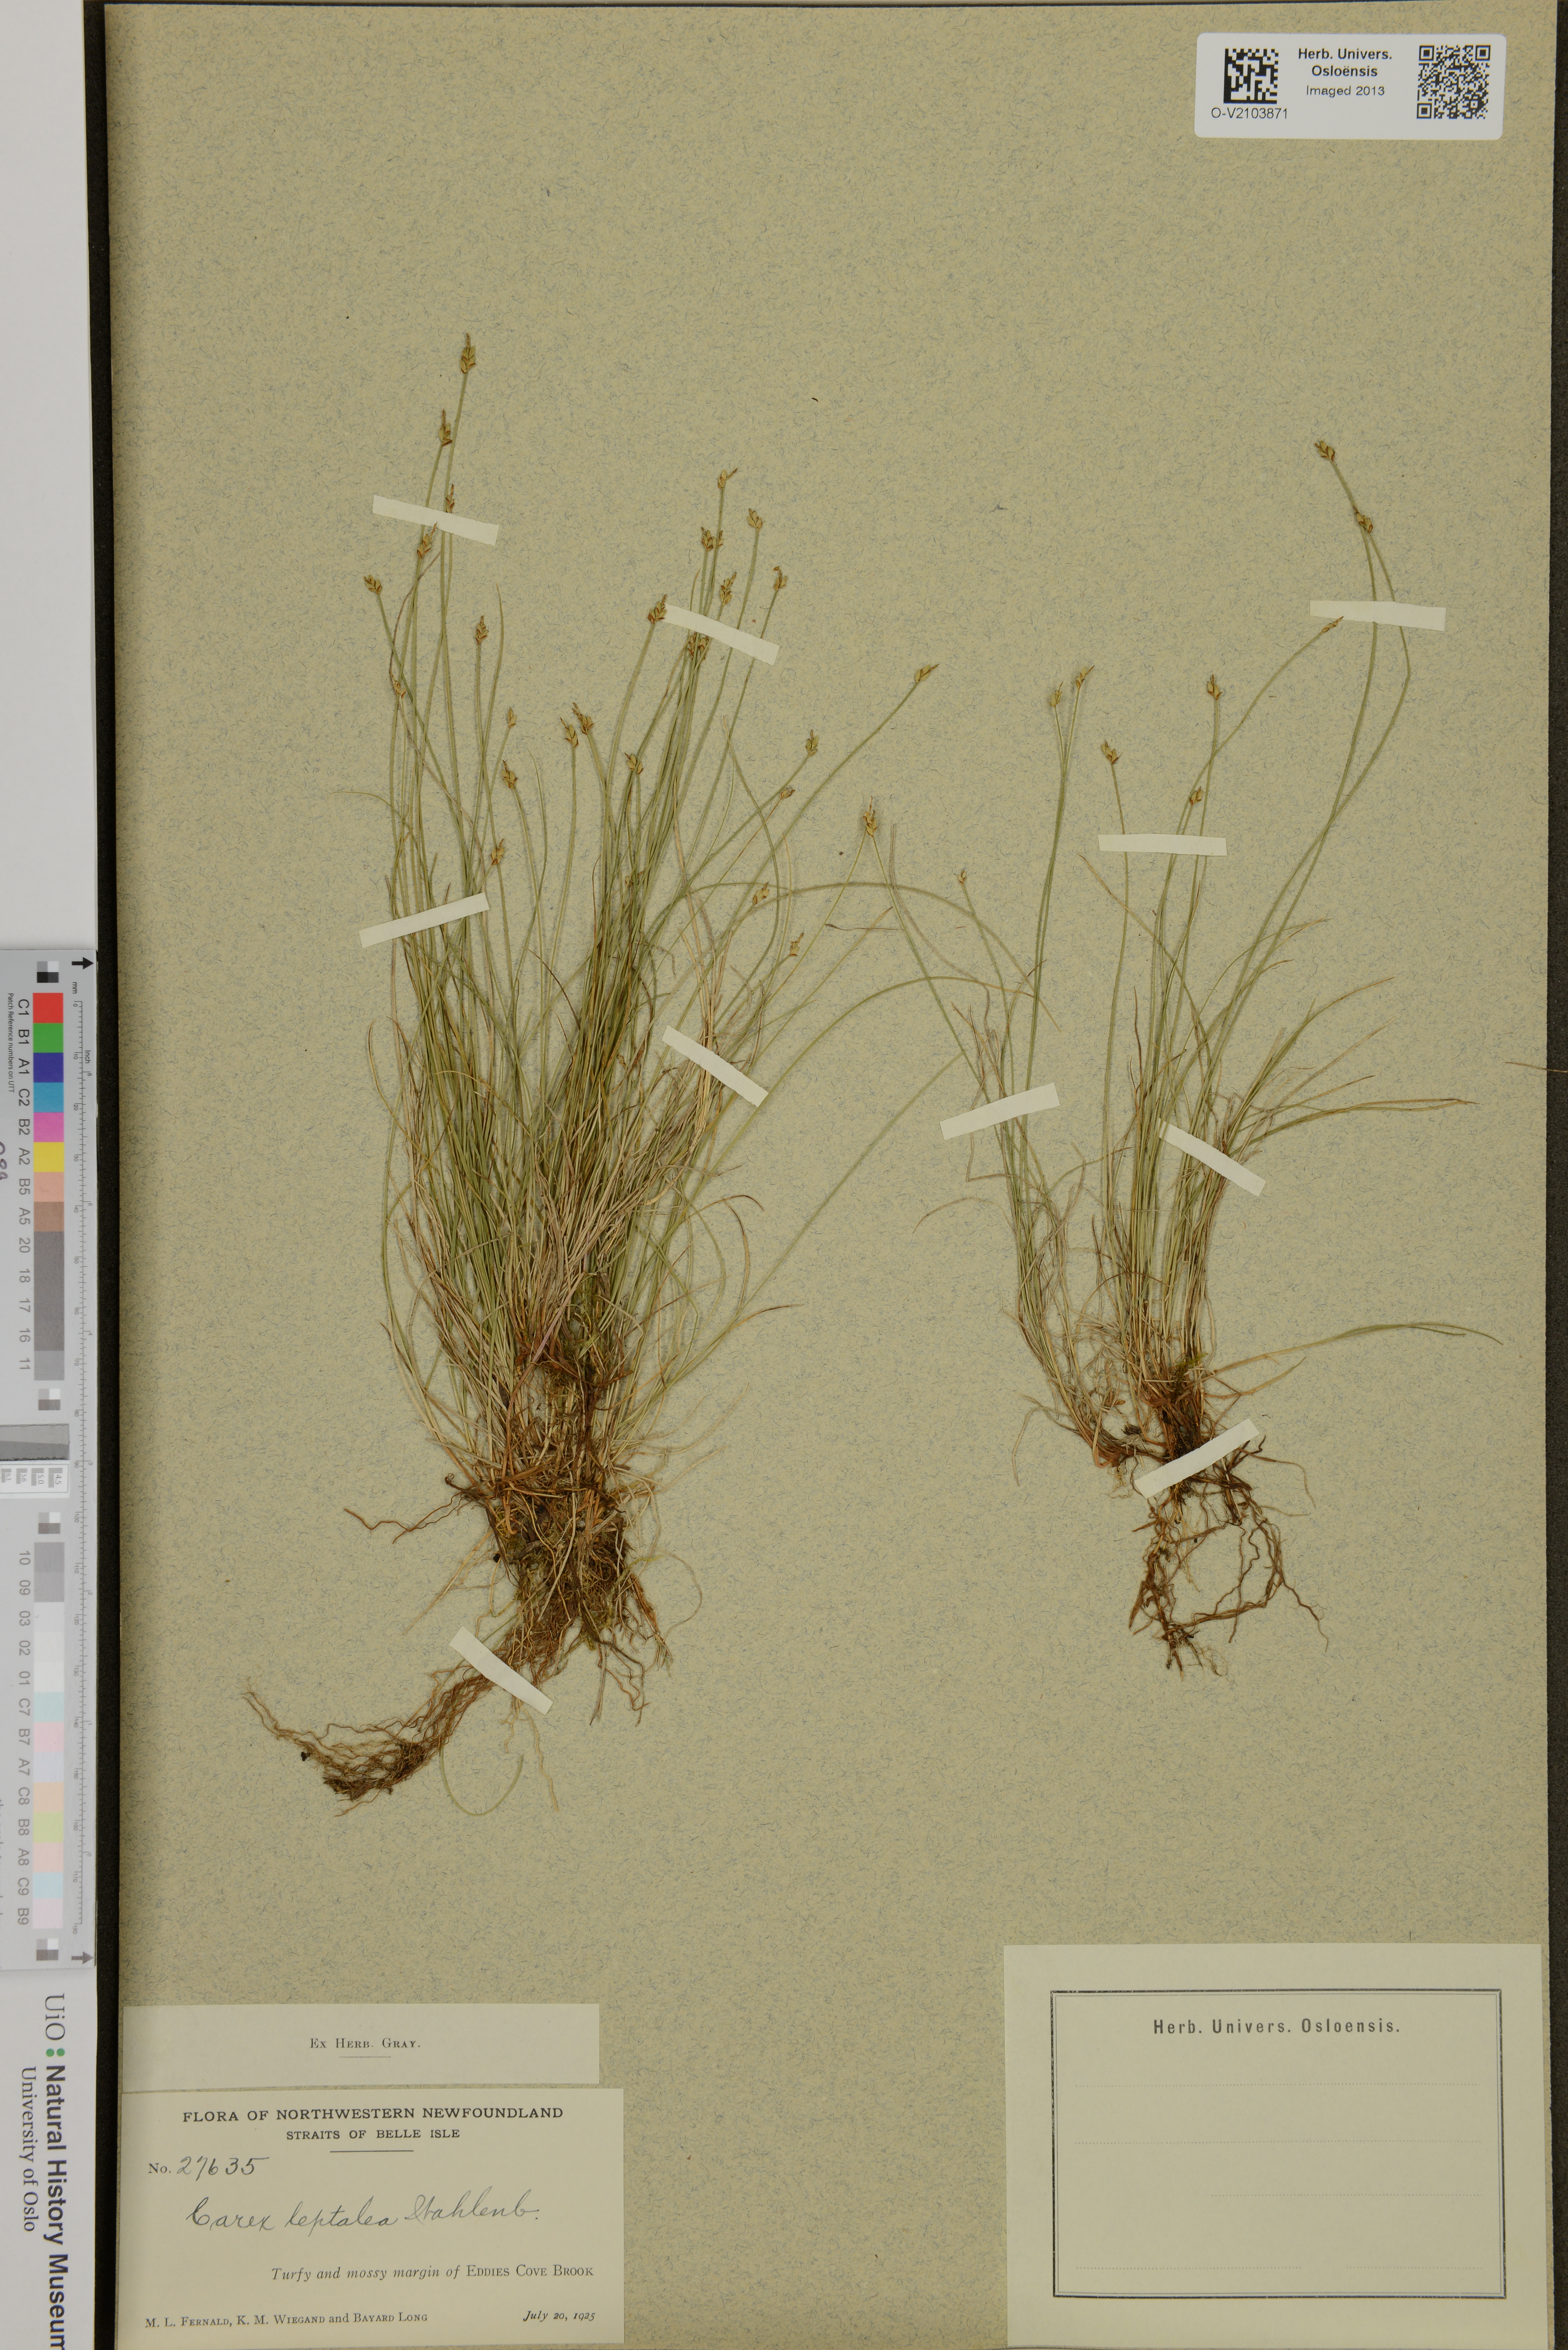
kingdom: Plantae
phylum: Tracheophyta
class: Liliopsida
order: Poales
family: Cyperaceae
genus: Carex
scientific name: Carex leptalea
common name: Bristly-stalked sedge
